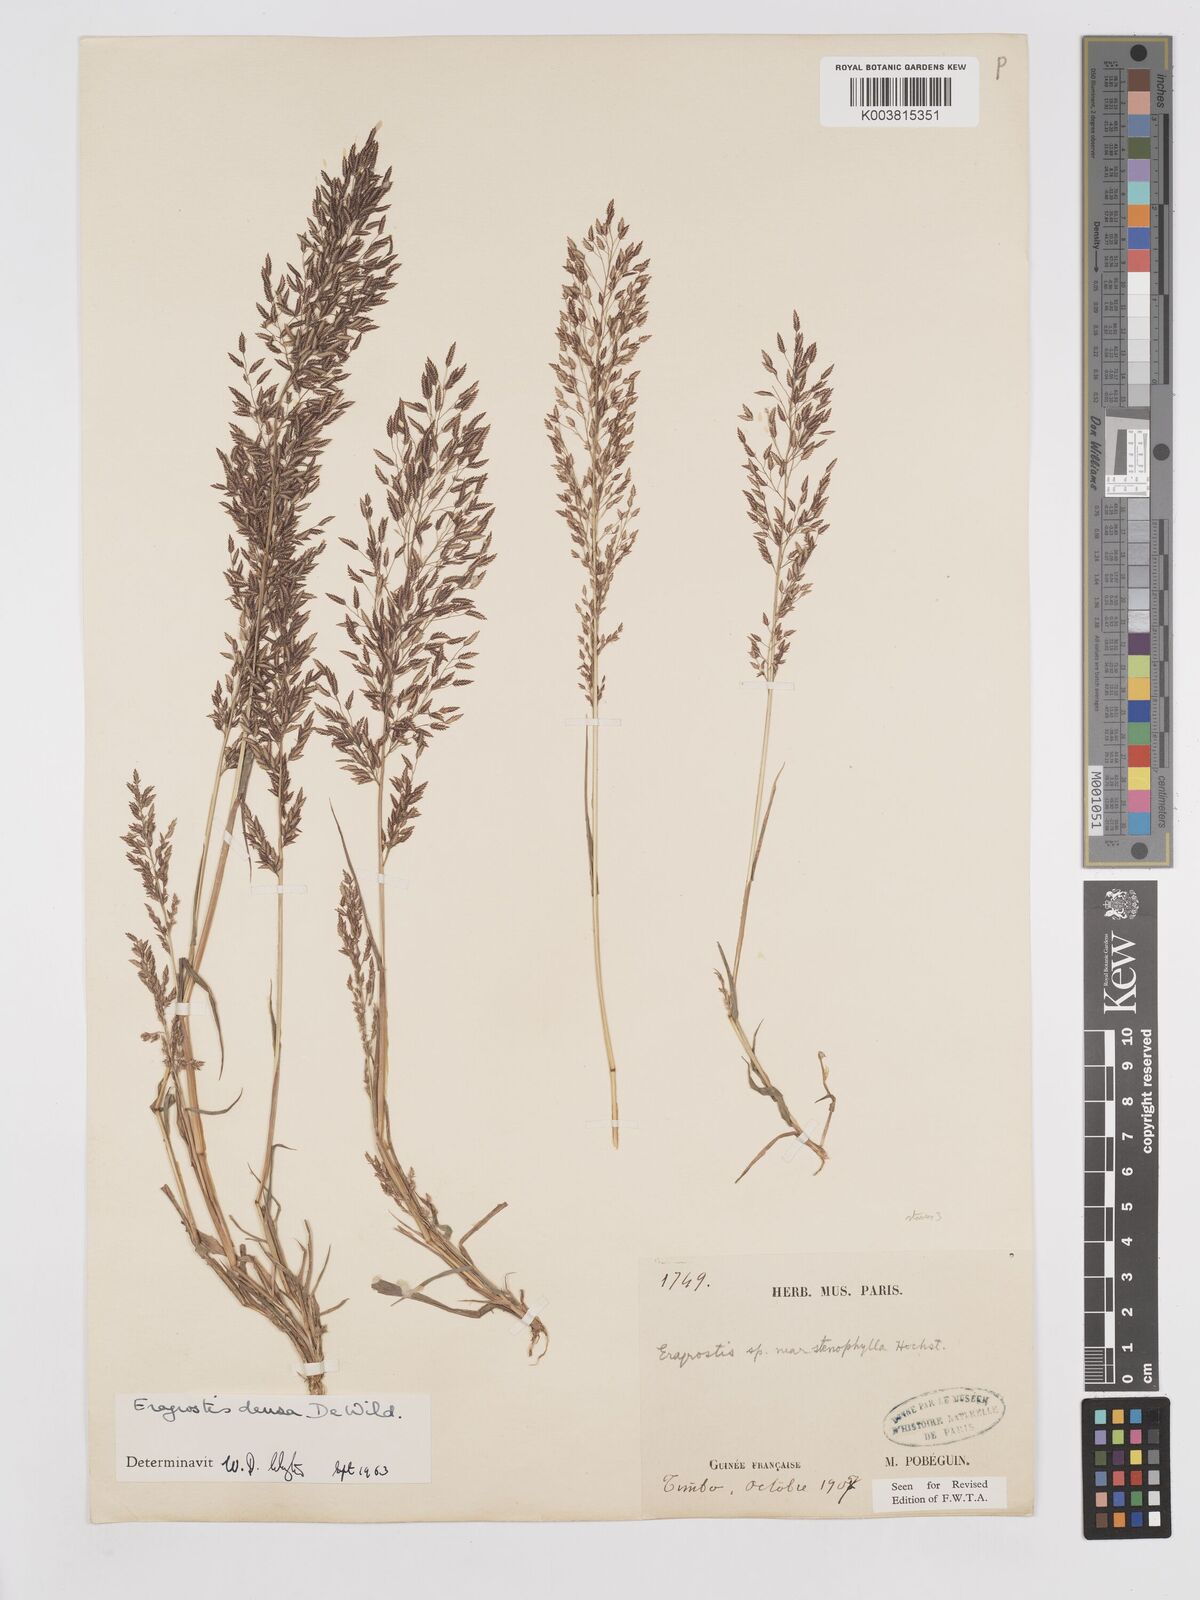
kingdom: Plantae
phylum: Tracheophyta
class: Liliopsida
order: Poales
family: Poaceae
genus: Eragrostis
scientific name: Eragrostis welwitschii
